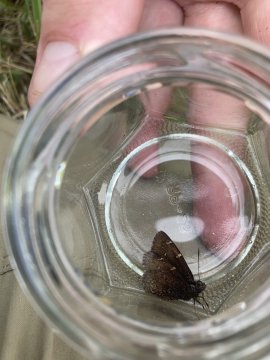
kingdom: Animalia
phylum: Arthropoda
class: Insecta
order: Lepidoptera
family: Hesperiidae
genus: Autochton
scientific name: Autochton
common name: Northern Cloudywing
